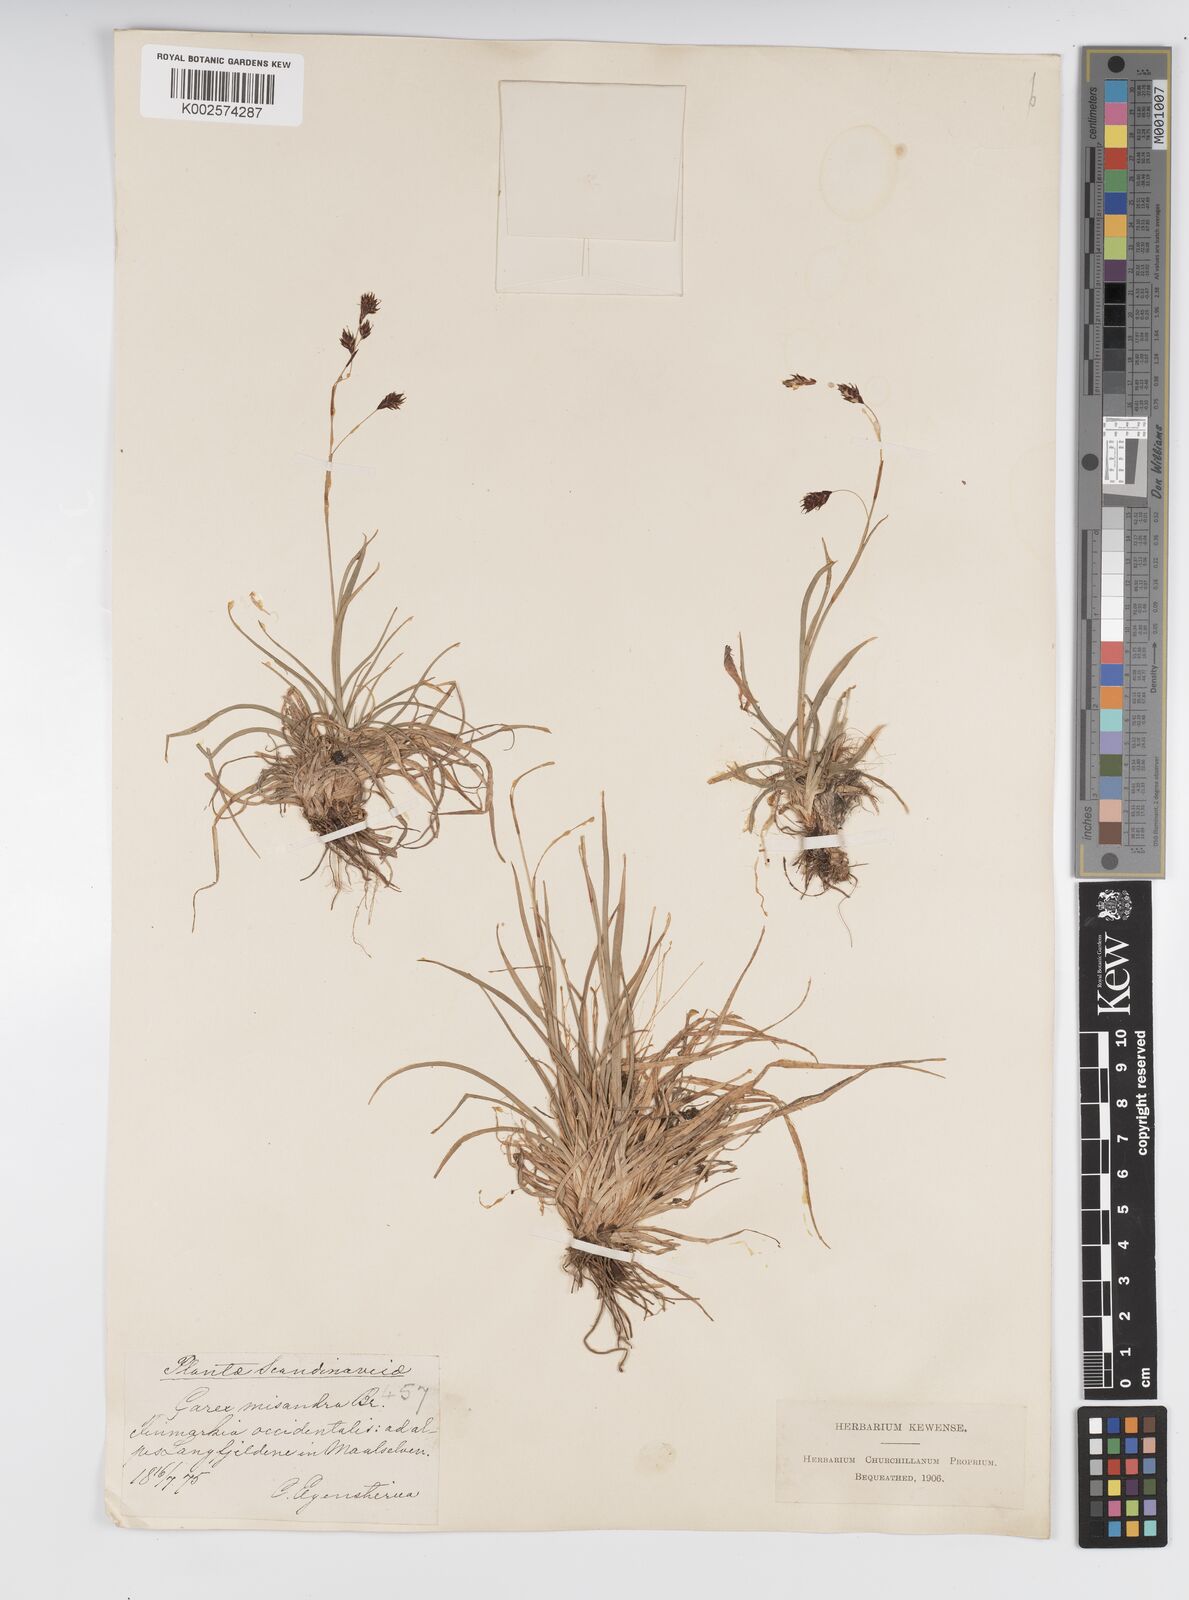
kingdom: Plantae
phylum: Tracheophyta
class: Liliopsida
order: Poales
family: Cyperaceae
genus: Carex
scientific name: Carex fuliginosa
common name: Few-flowered sedge
